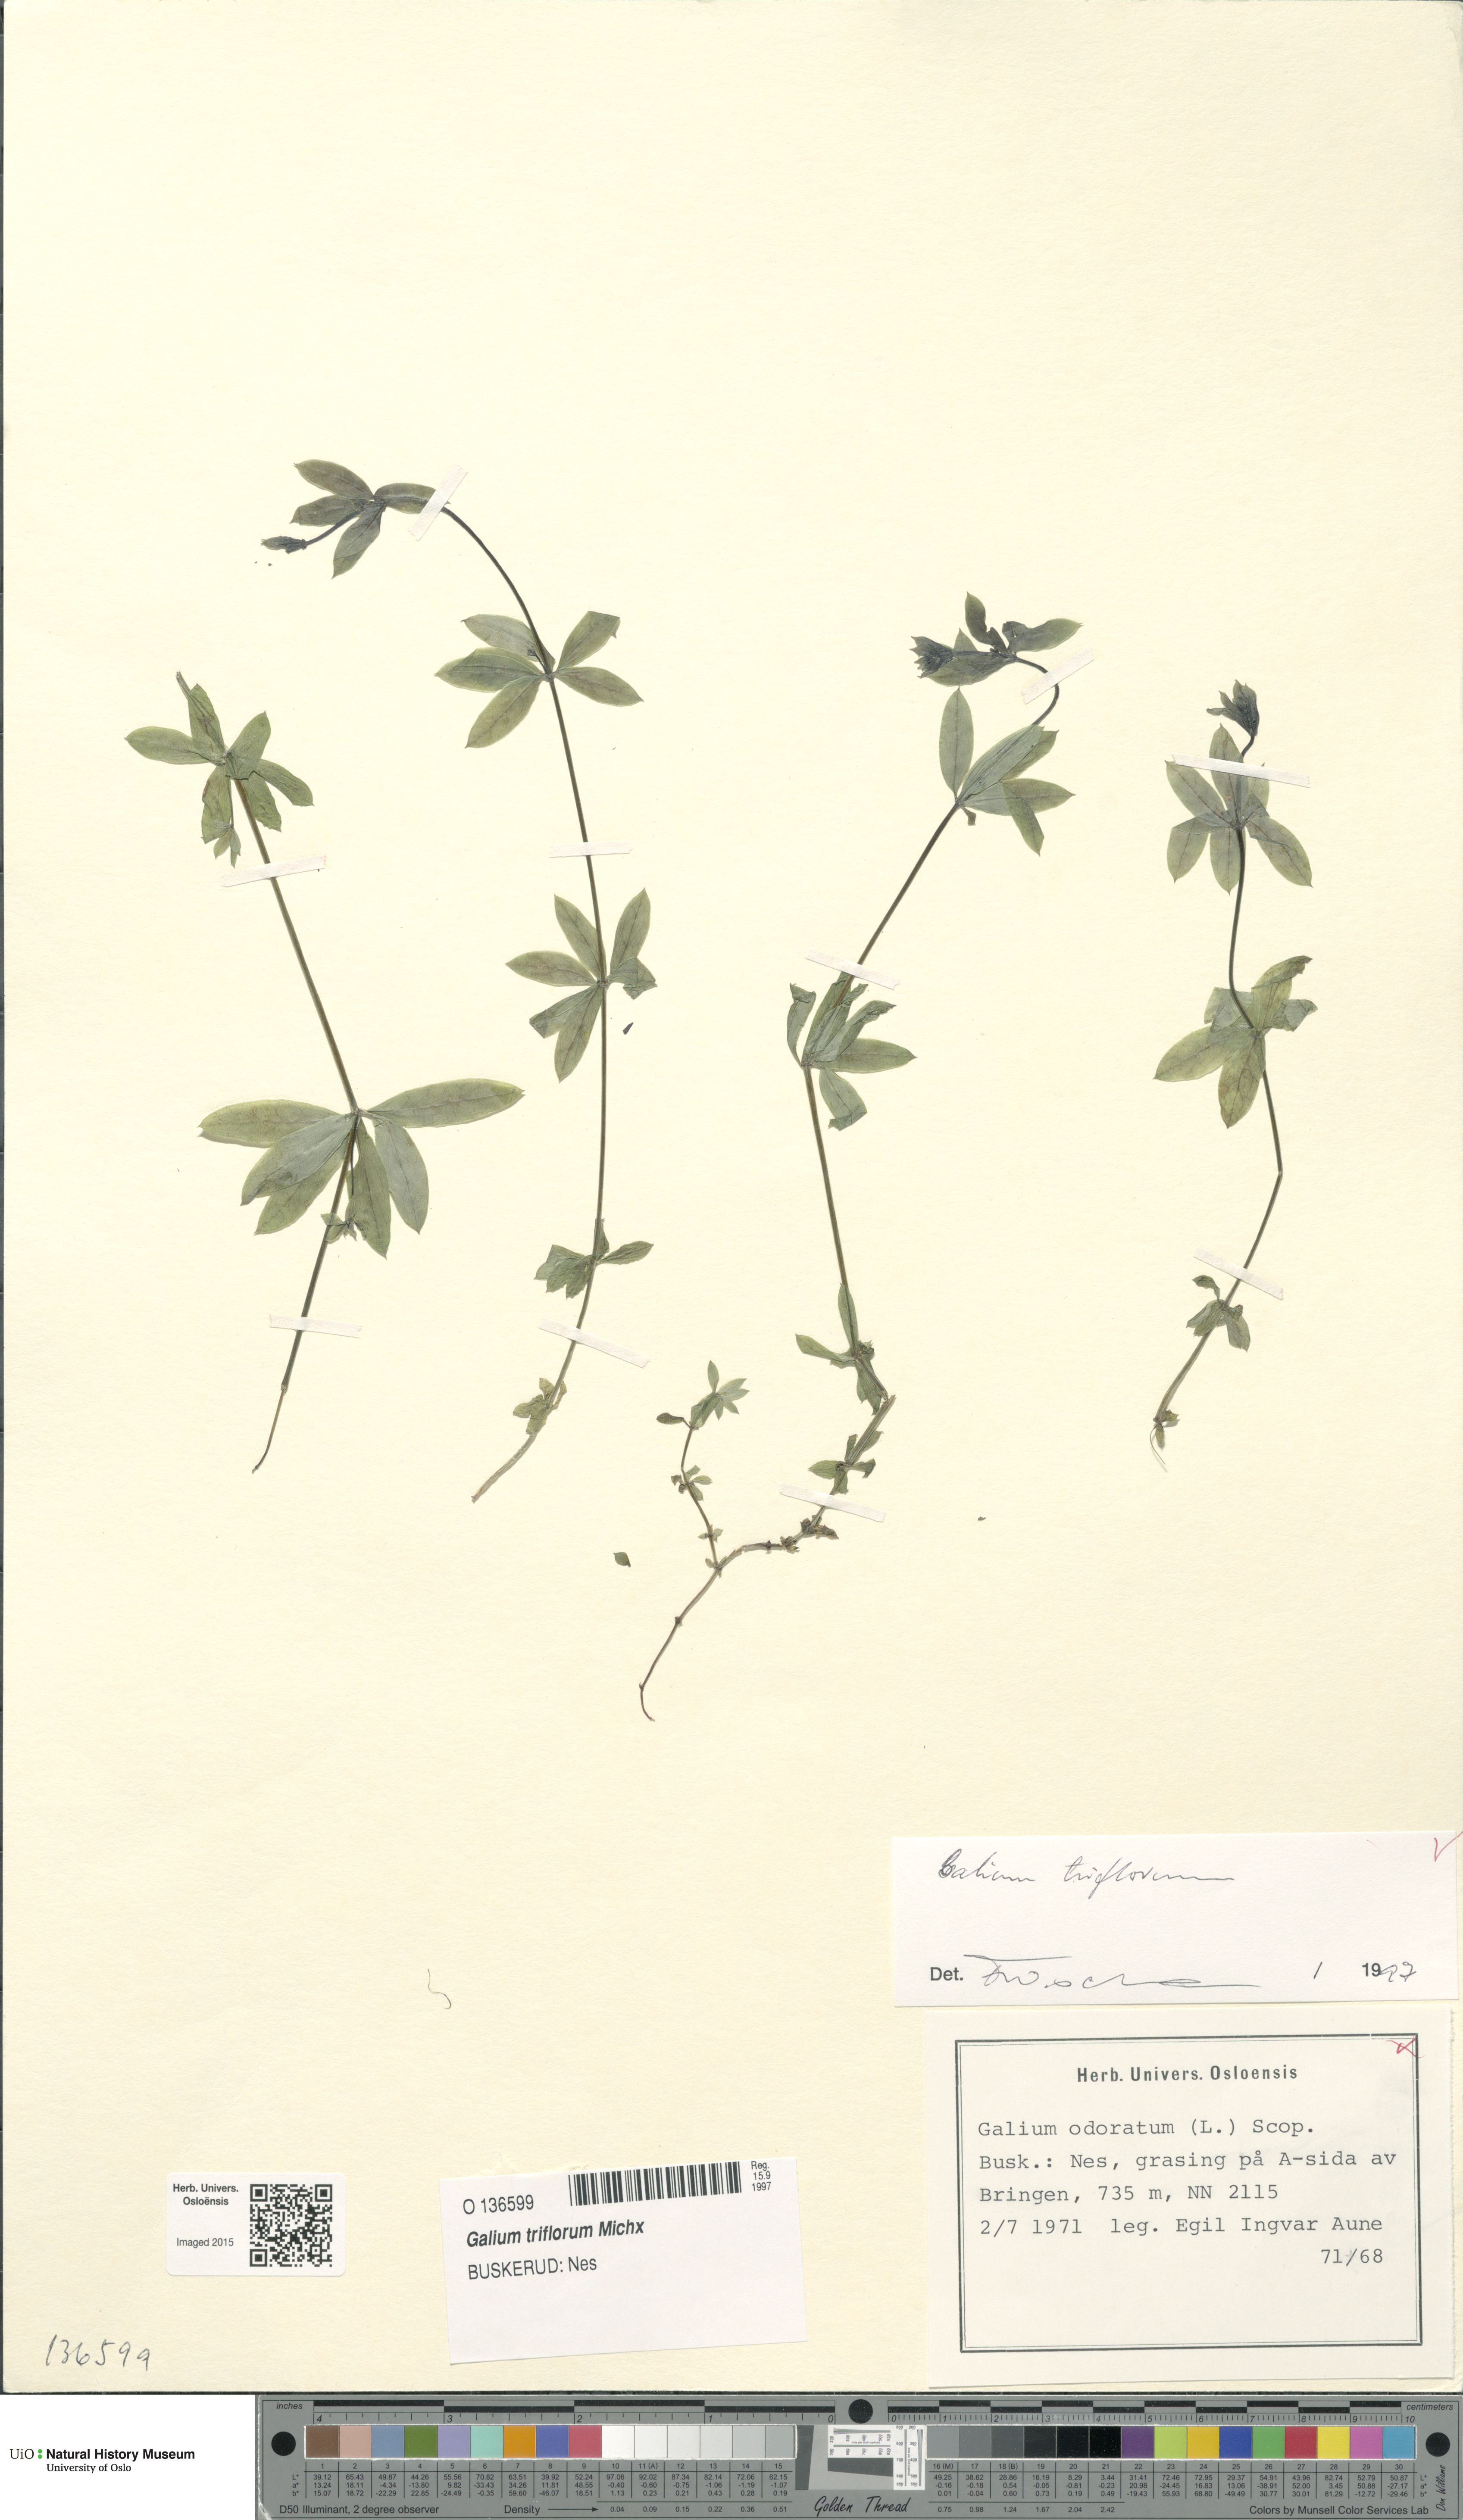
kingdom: Plantae
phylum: Tracheophyta
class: Magnoliopsida
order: Gentianales
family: Rubiaceae
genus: Galium
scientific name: Galium triflorum
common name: Fragrant bedstraw
